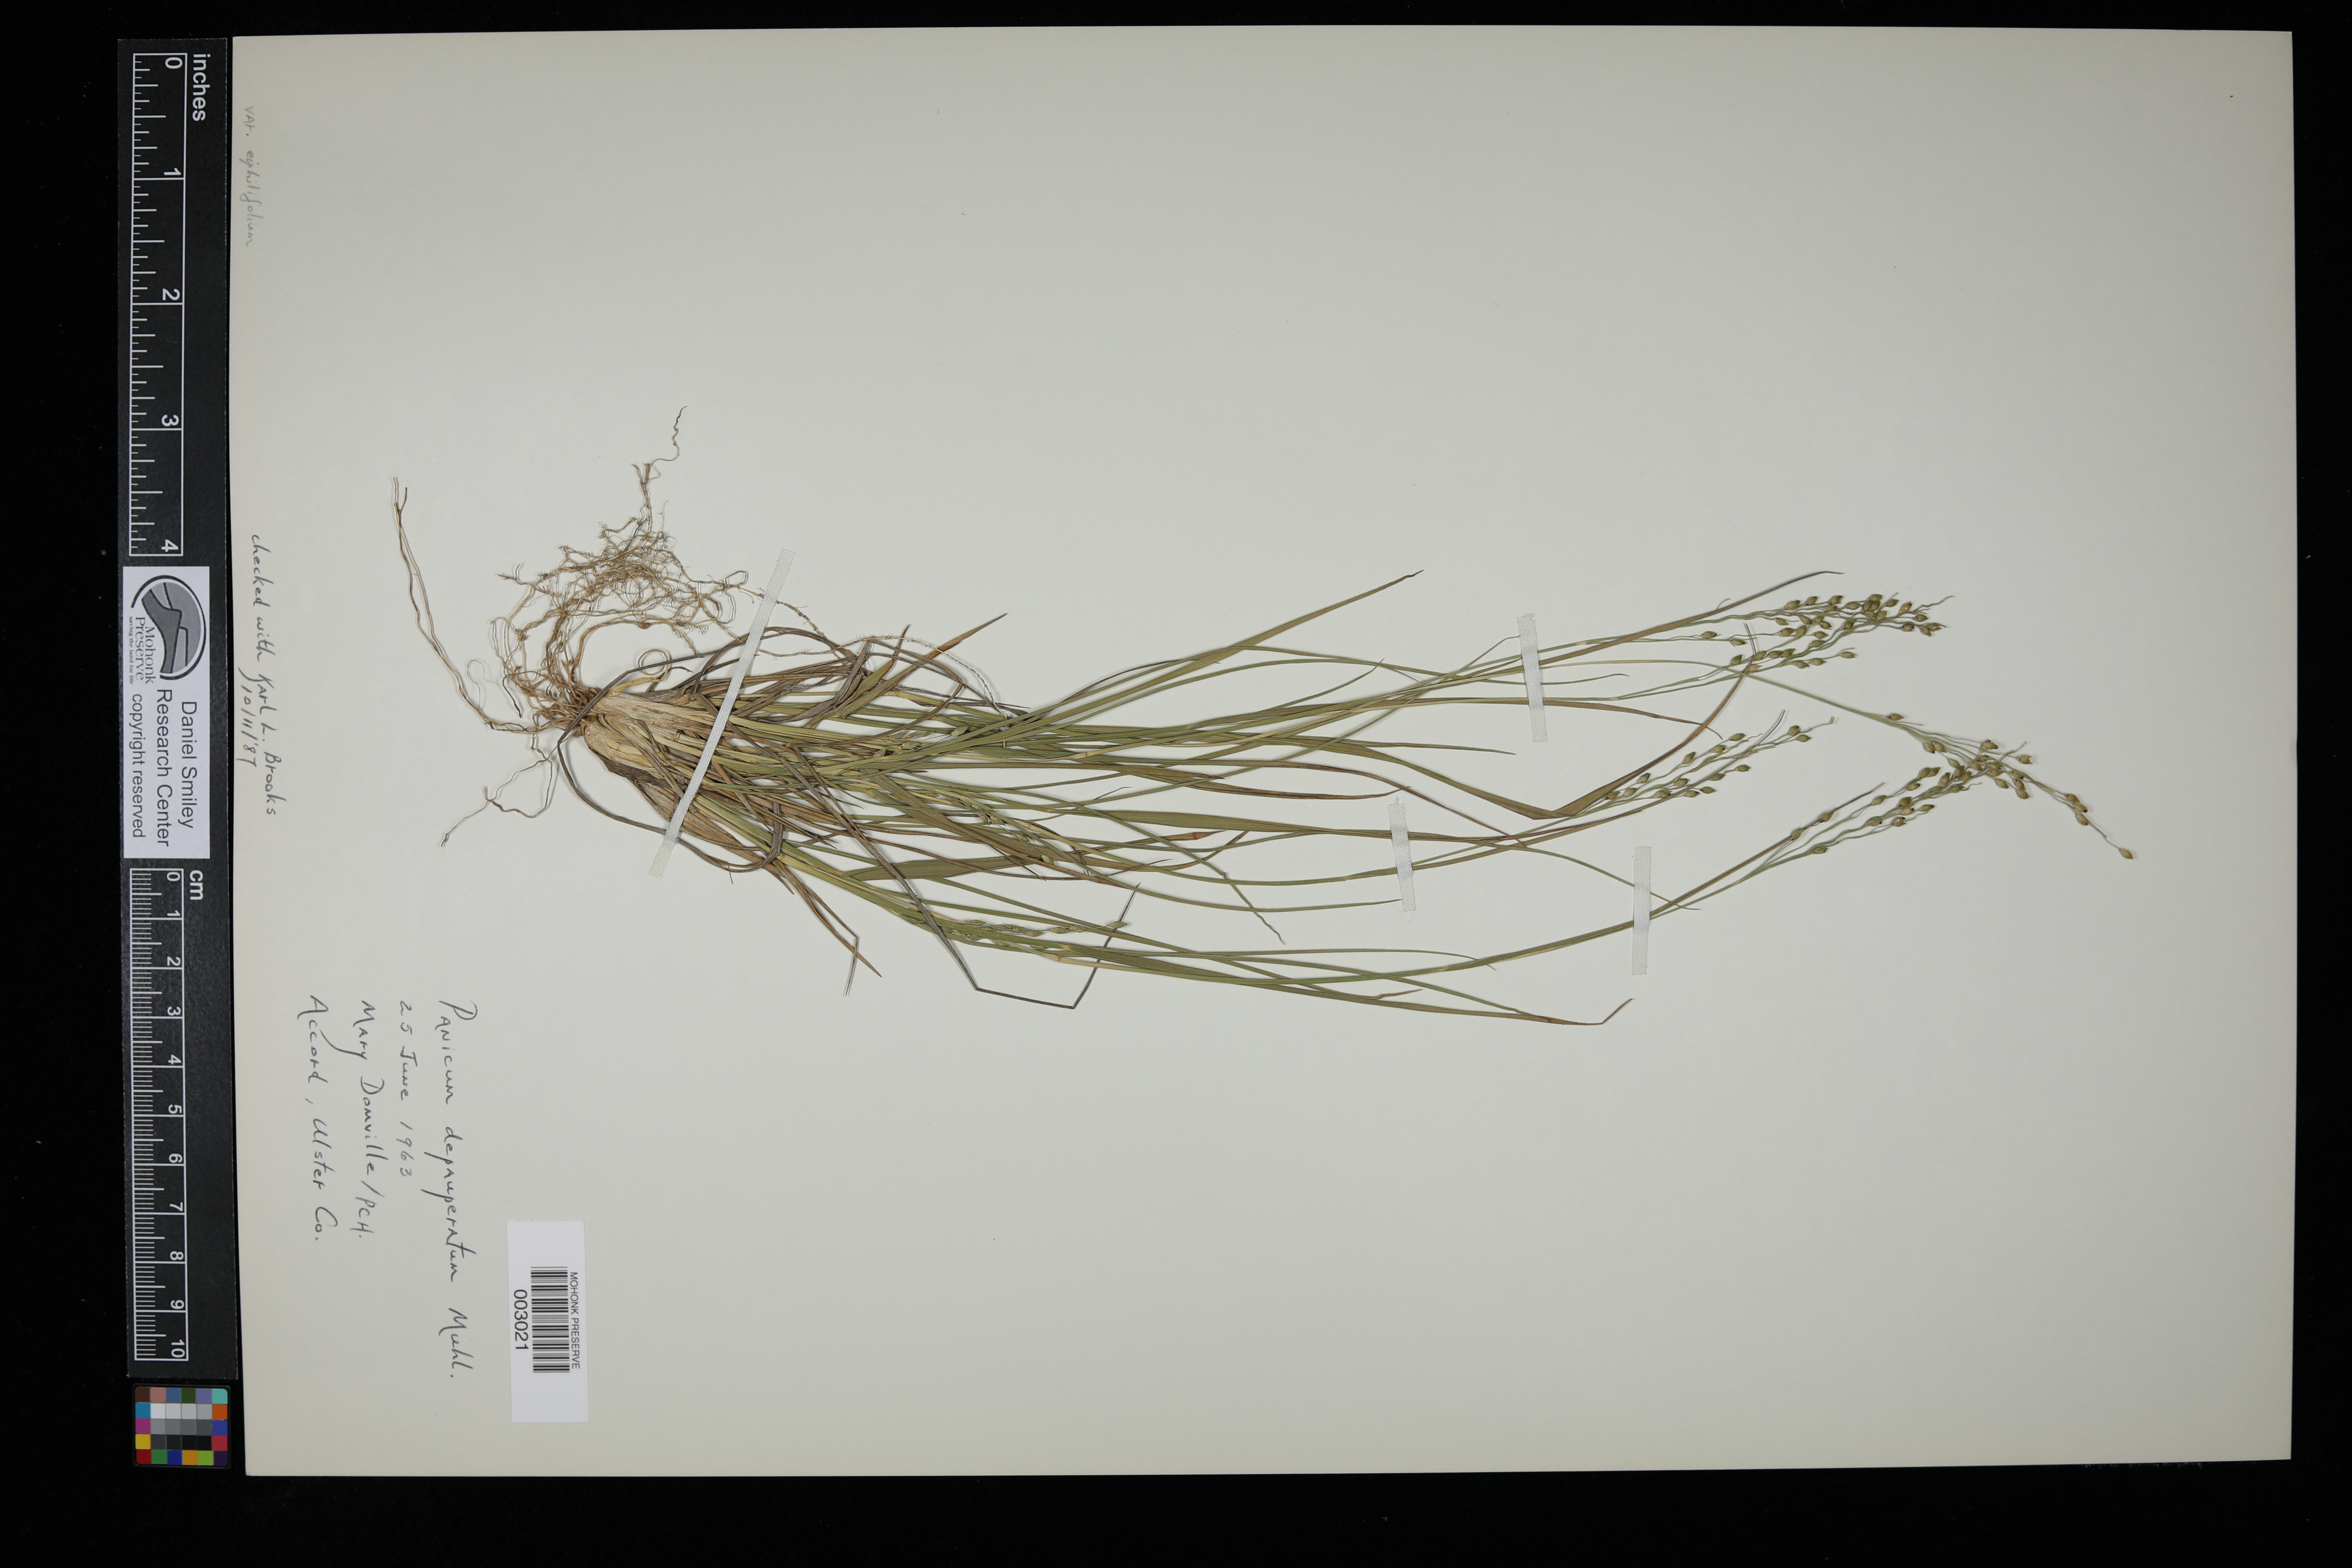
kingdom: Plantae
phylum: Tracheophyta
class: Liliopsida
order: Poales
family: Poaceae
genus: Dichanthelium
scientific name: Dichanthelium depauperatum
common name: Depauperate panicgrass
